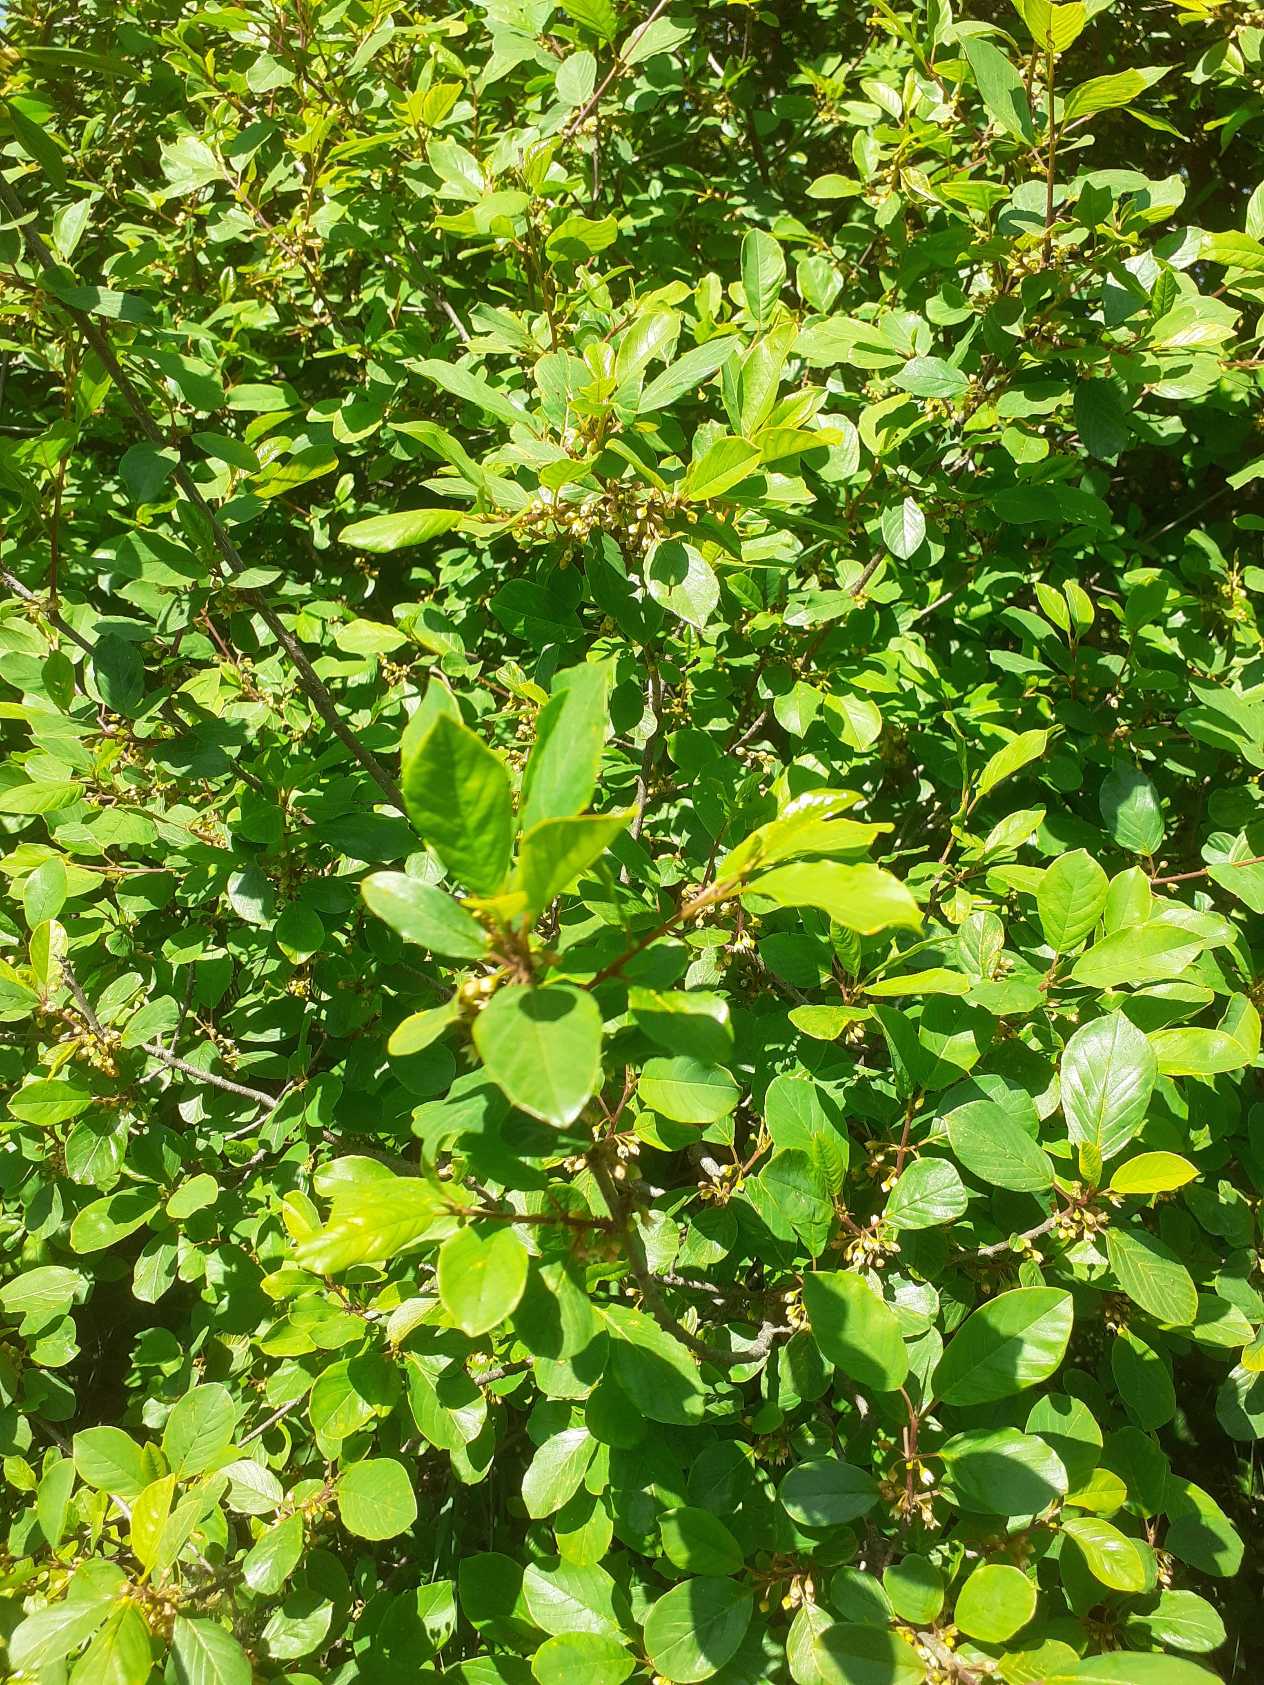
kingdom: Plantae
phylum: Tracheophyta
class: Magnoliopsida
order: Rosales
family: Rhamnaceae
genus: Frangula
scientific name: Frangula alnus
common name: Tørst
